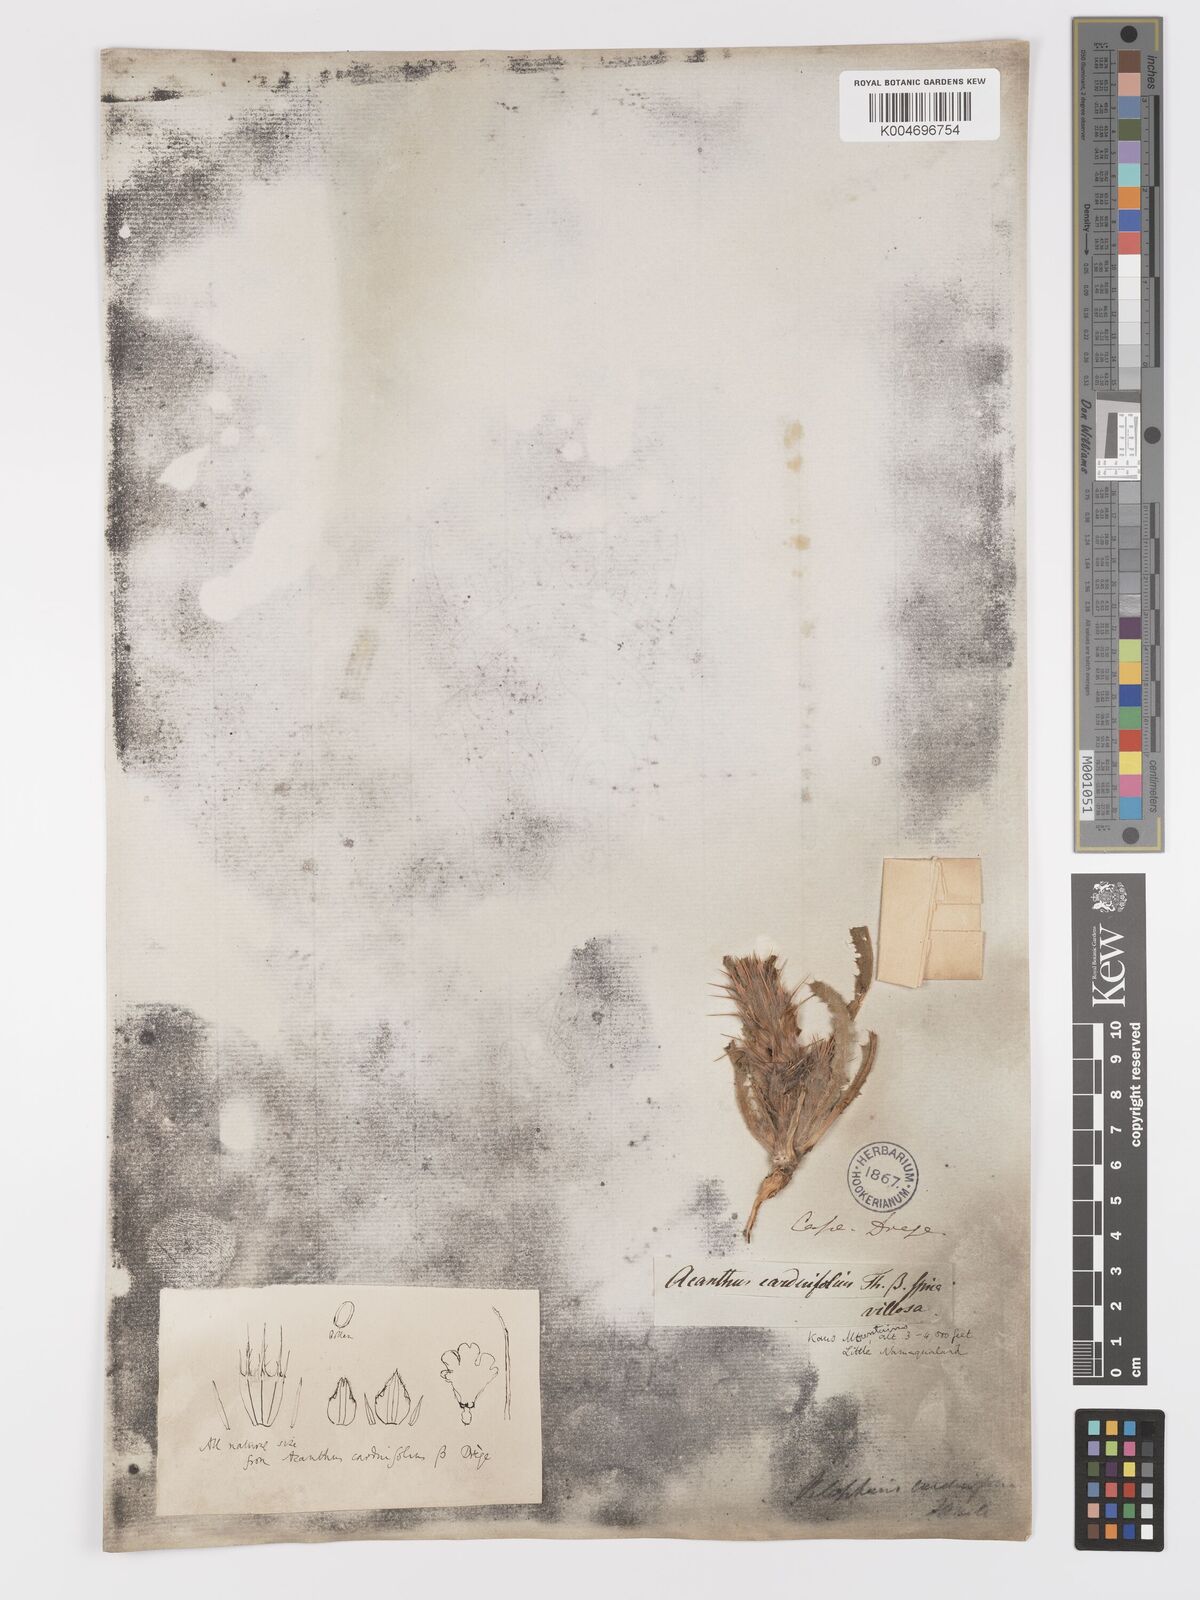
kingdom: Plantae
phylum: Tracheophyta
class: Magnoliopsida
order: Lamiales
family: Acanthaceae
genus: Acanthopsis
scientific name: Acanthopsis carduifolia
